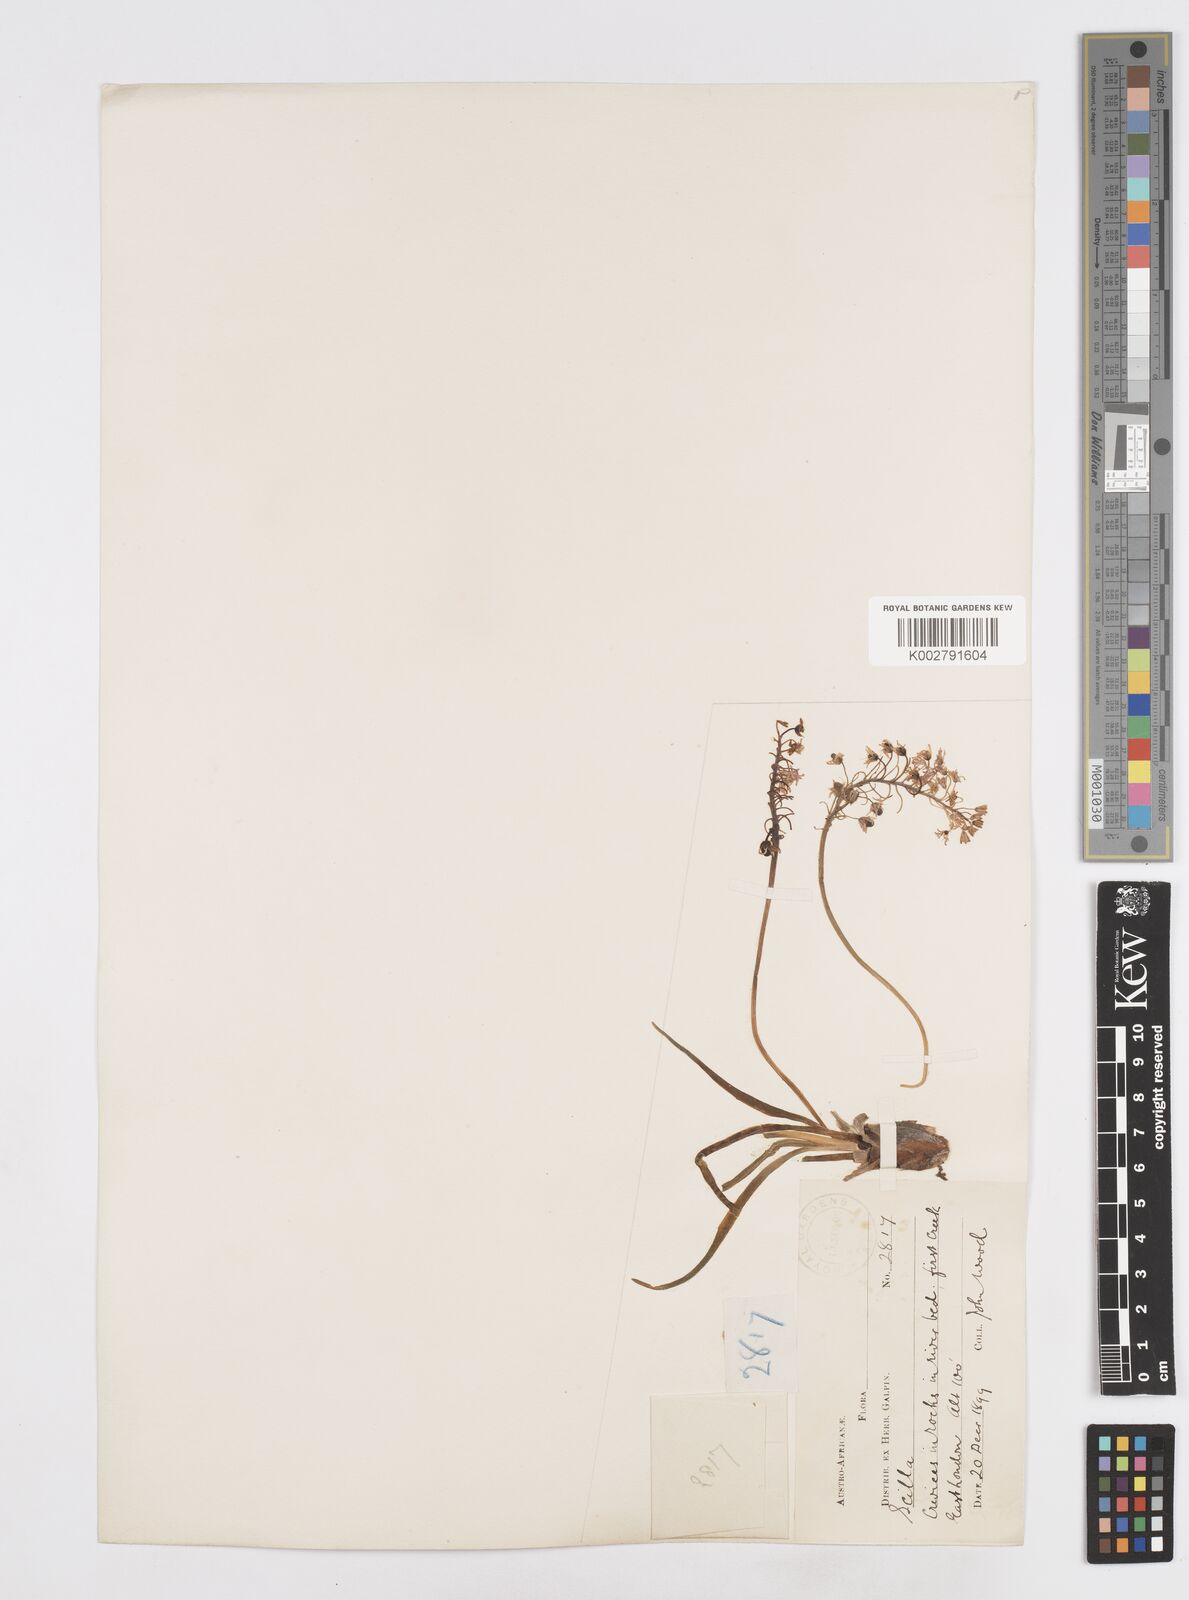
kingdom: Plantae
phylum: Tracheophyta
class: Liliopsida
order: Asparagales
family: Asparagaceae
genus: Scilla
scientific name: Scilla
